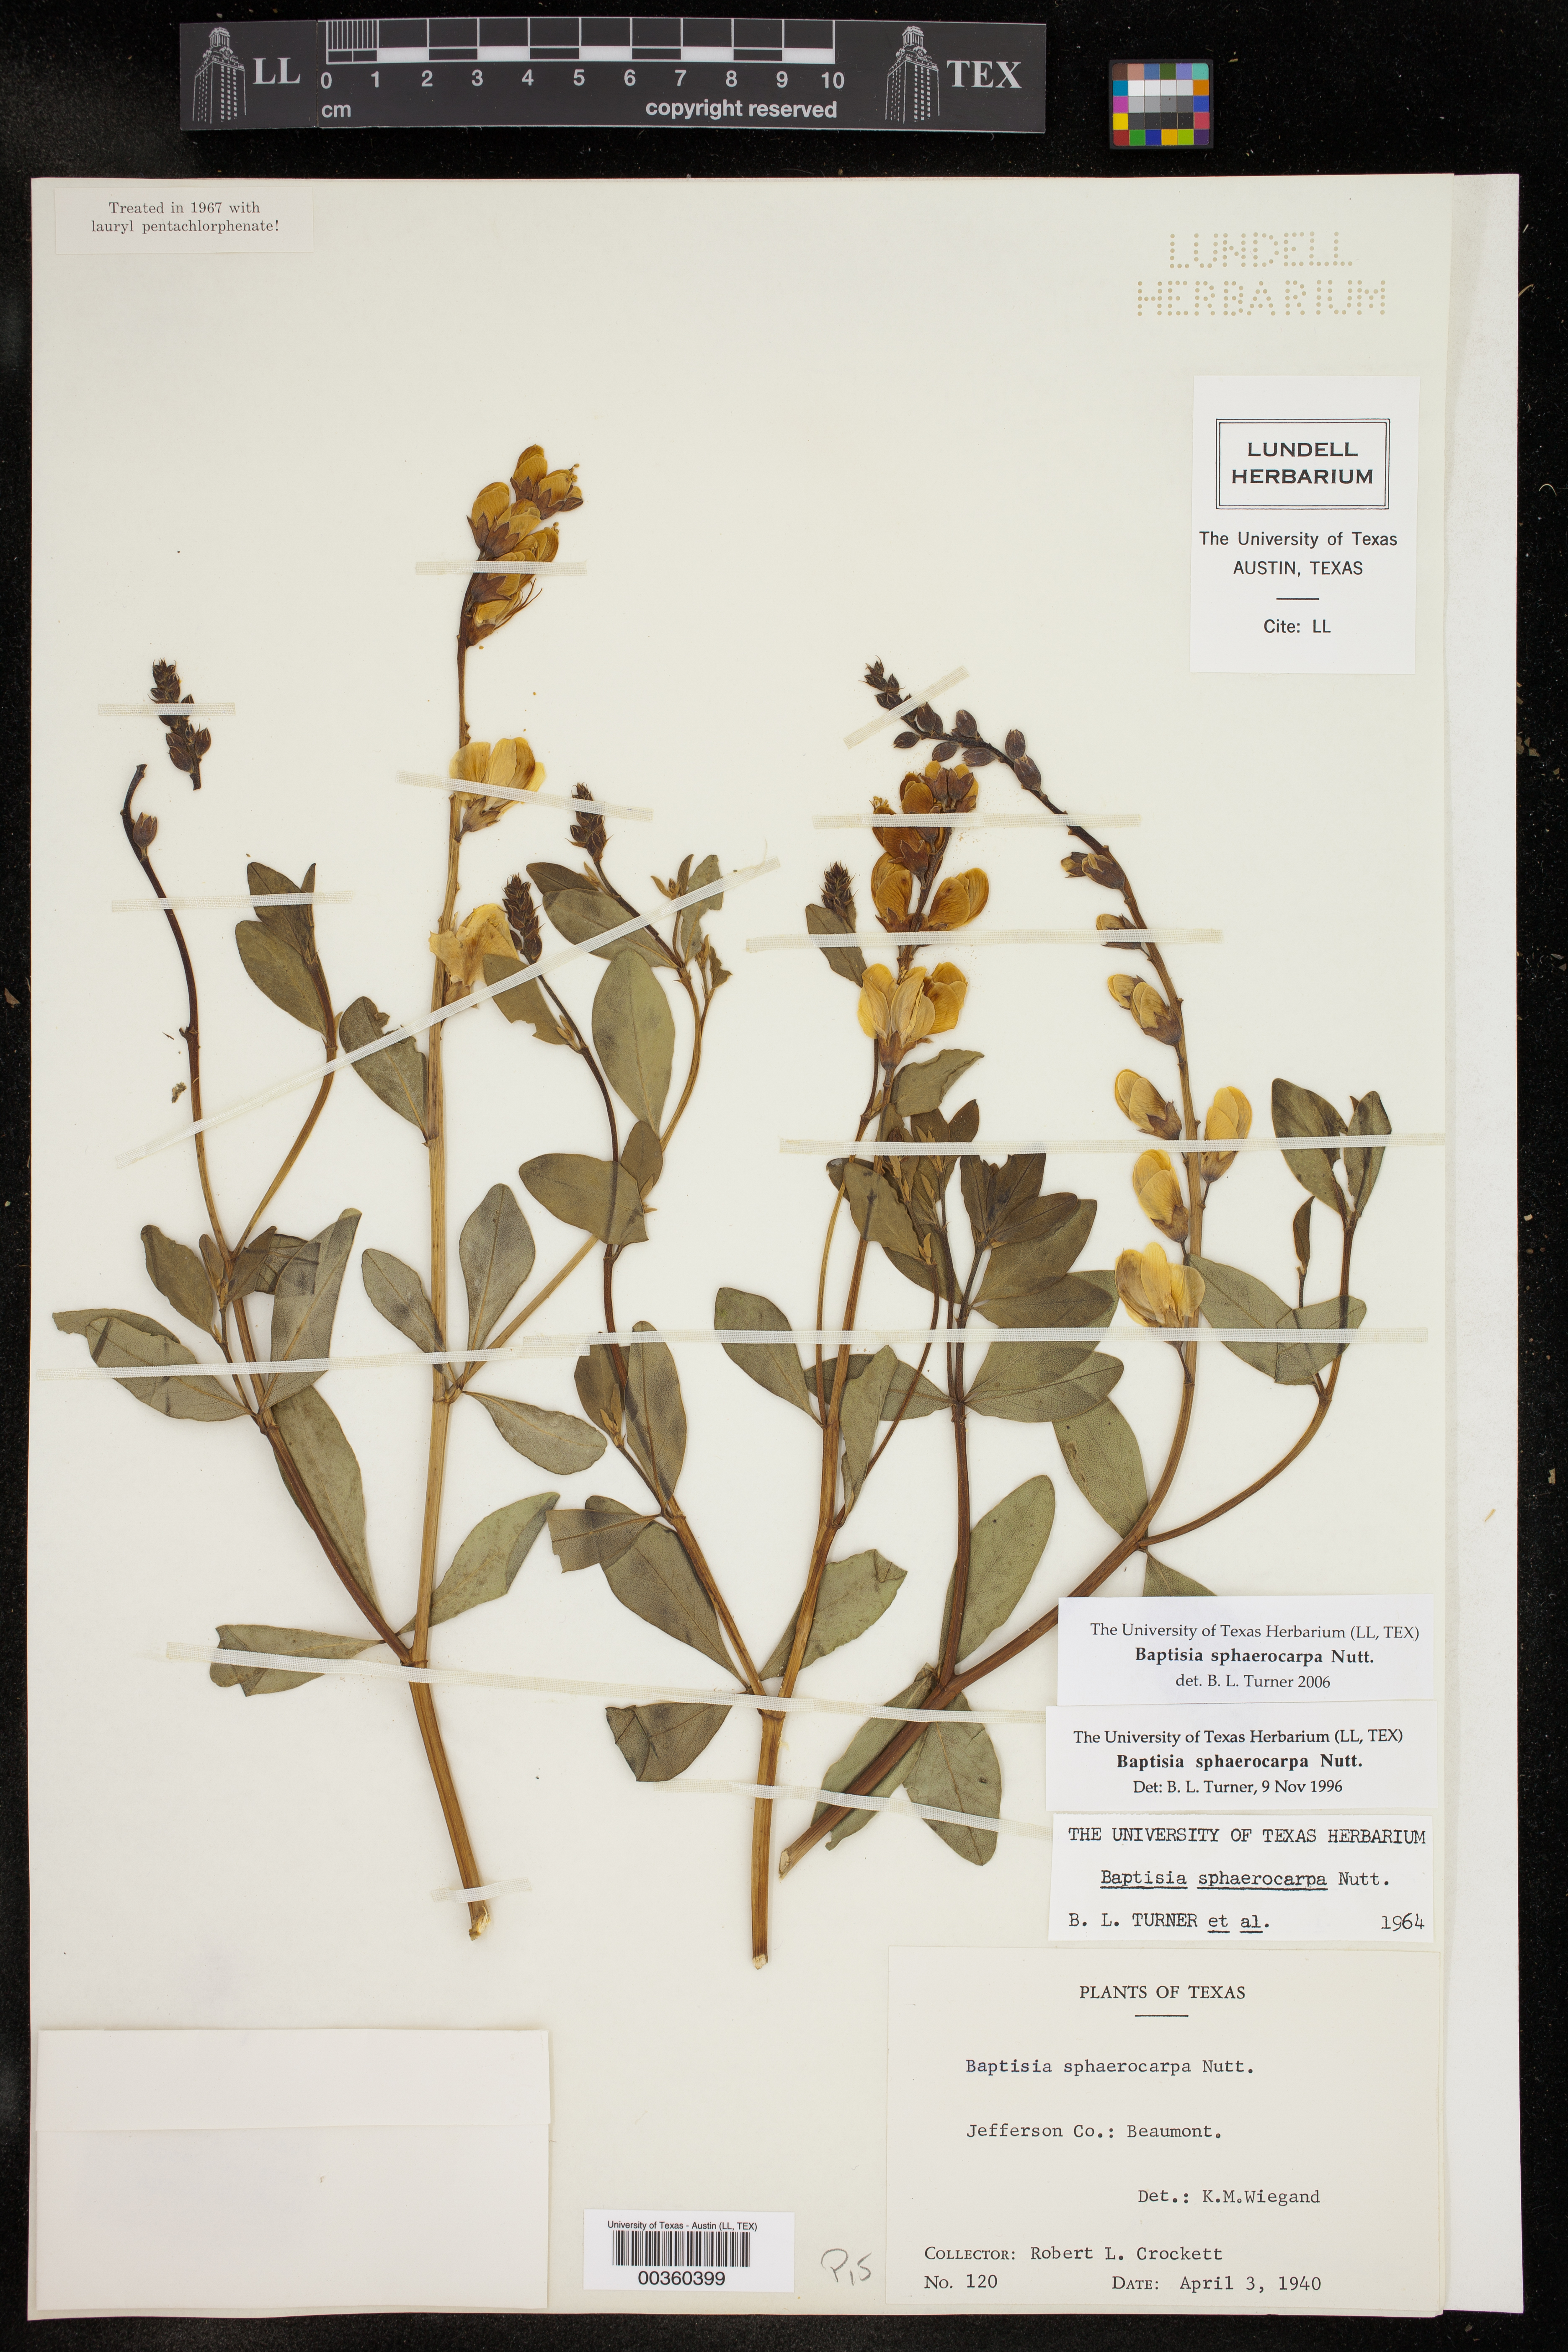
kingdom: Plantae
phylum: Tracheophyta
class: Magnoliopsida
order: Fabales
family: Fabaceae
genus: Baptisia
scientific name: Baptisia sphaerocarpa
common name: Round wild indigo
